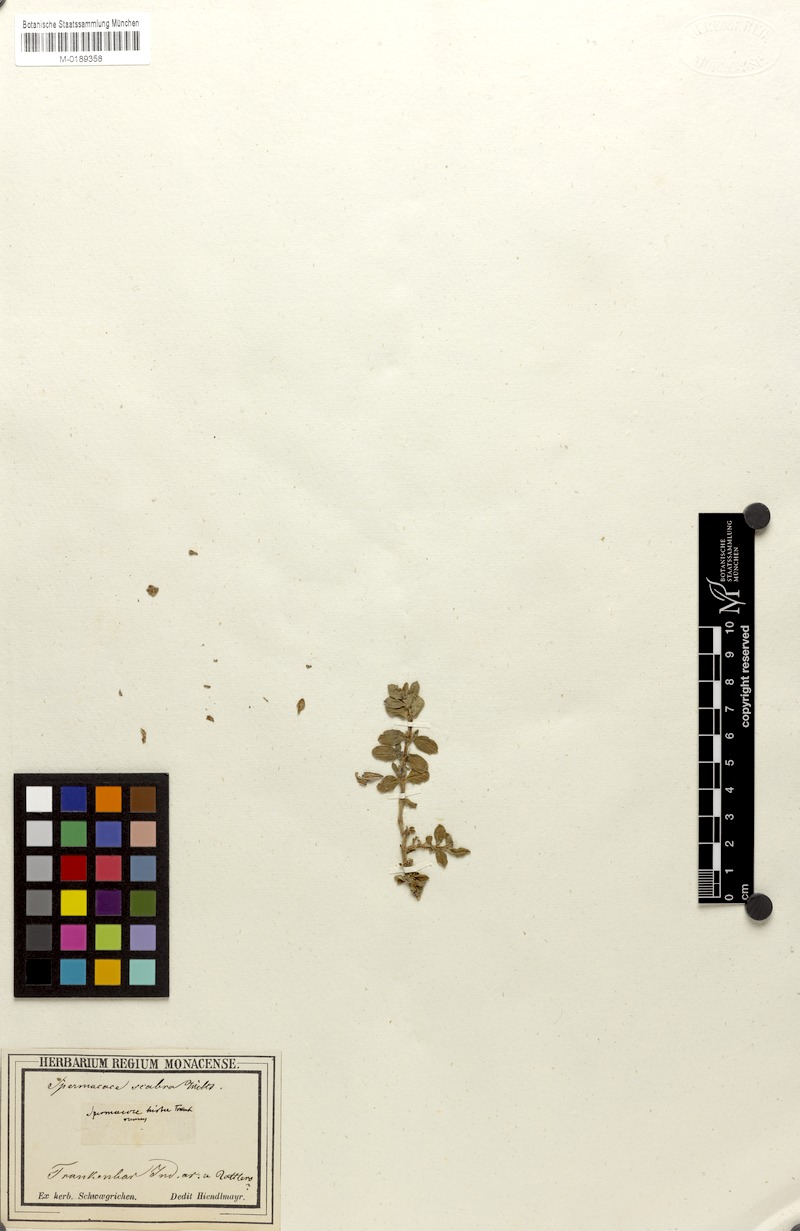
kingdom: Plantae
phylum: Tracheophyta
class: Magnoliopsida
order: Gentianales
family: Rubiaceae
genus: Spermacoce
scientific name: Spermacoce articularis
